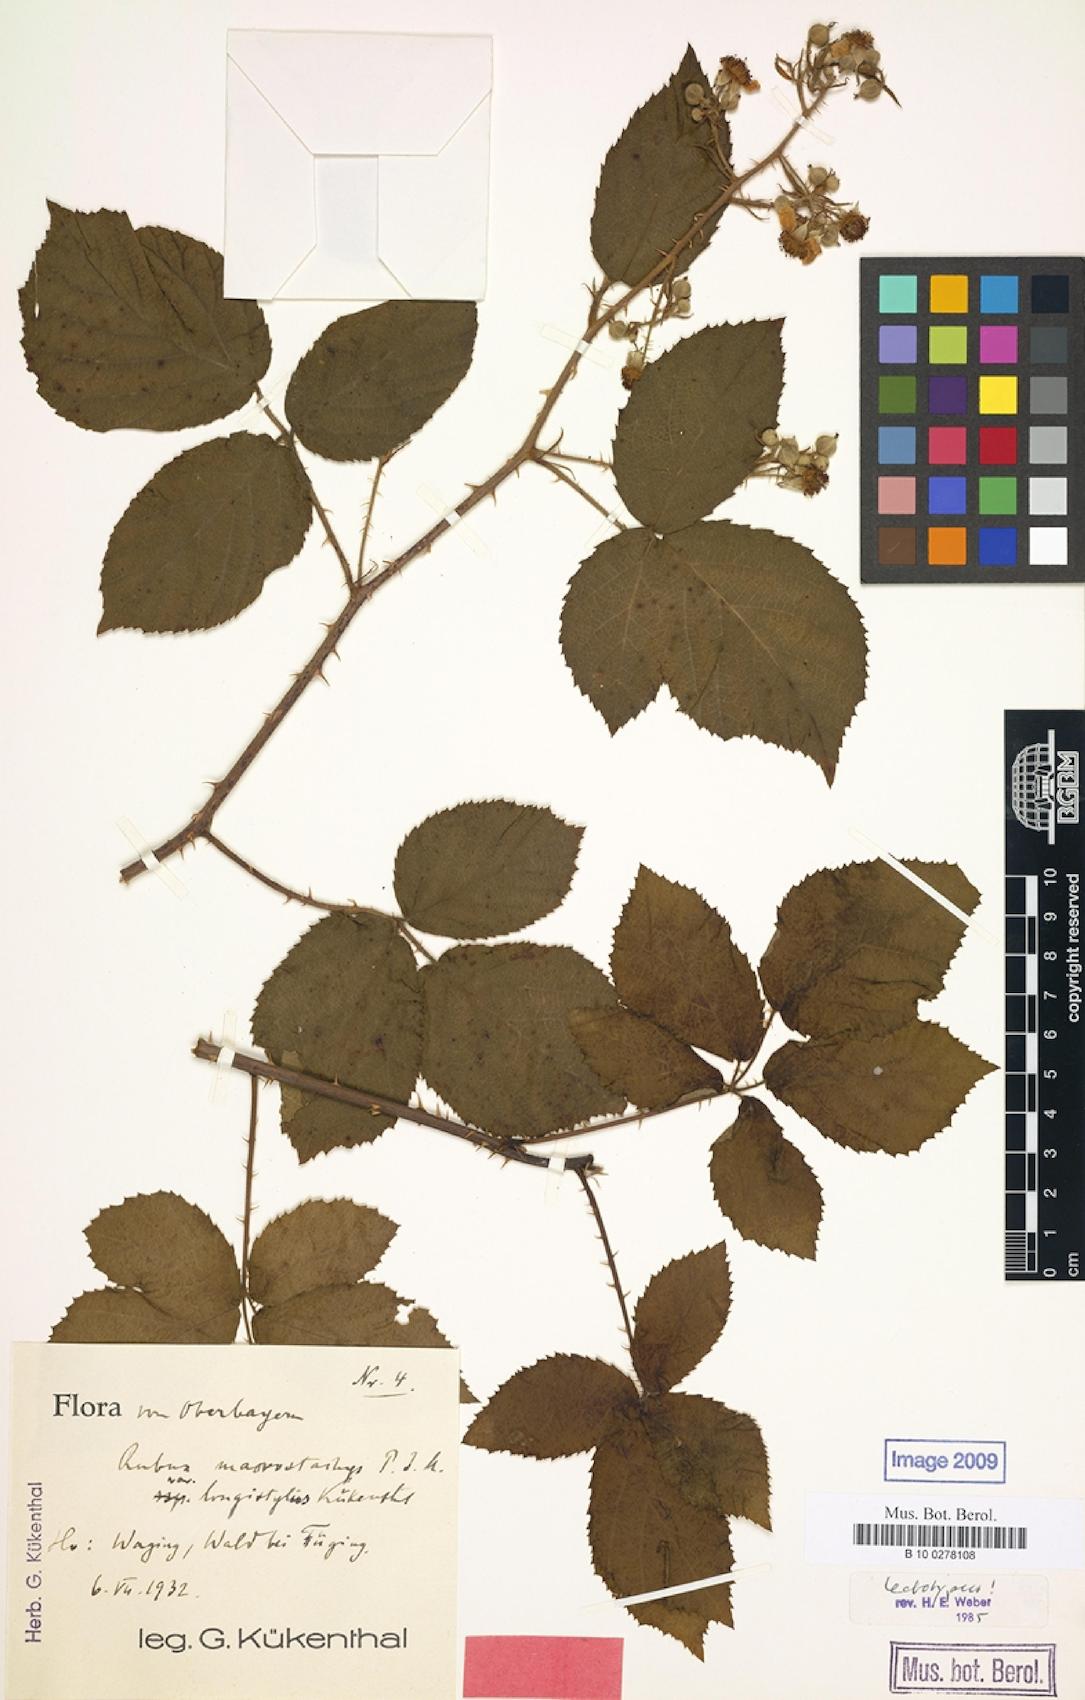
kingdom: Plantae
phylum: Tracheophyta
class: Magnoliopsida
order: Rosales
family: Rosaceae
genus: Rubus
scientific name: Rubus macrostachys
